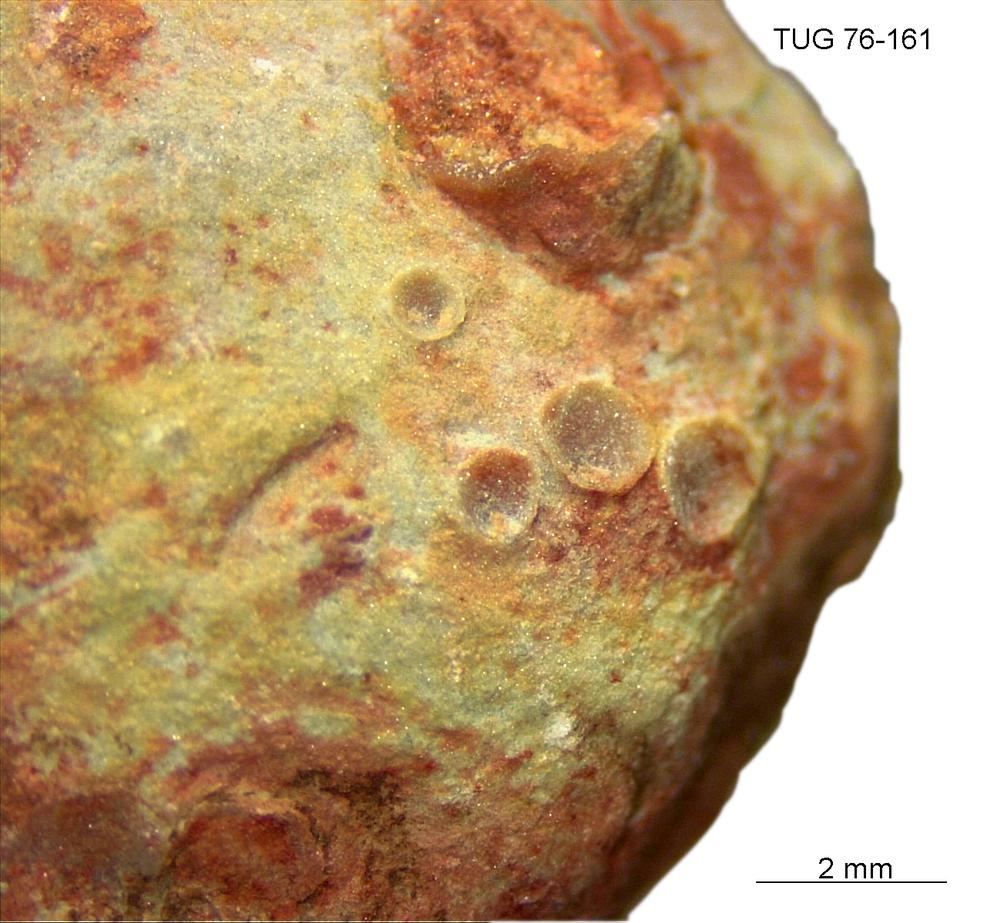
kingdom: Animalia
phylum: Brachiopoda
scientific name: Brachiopoda
